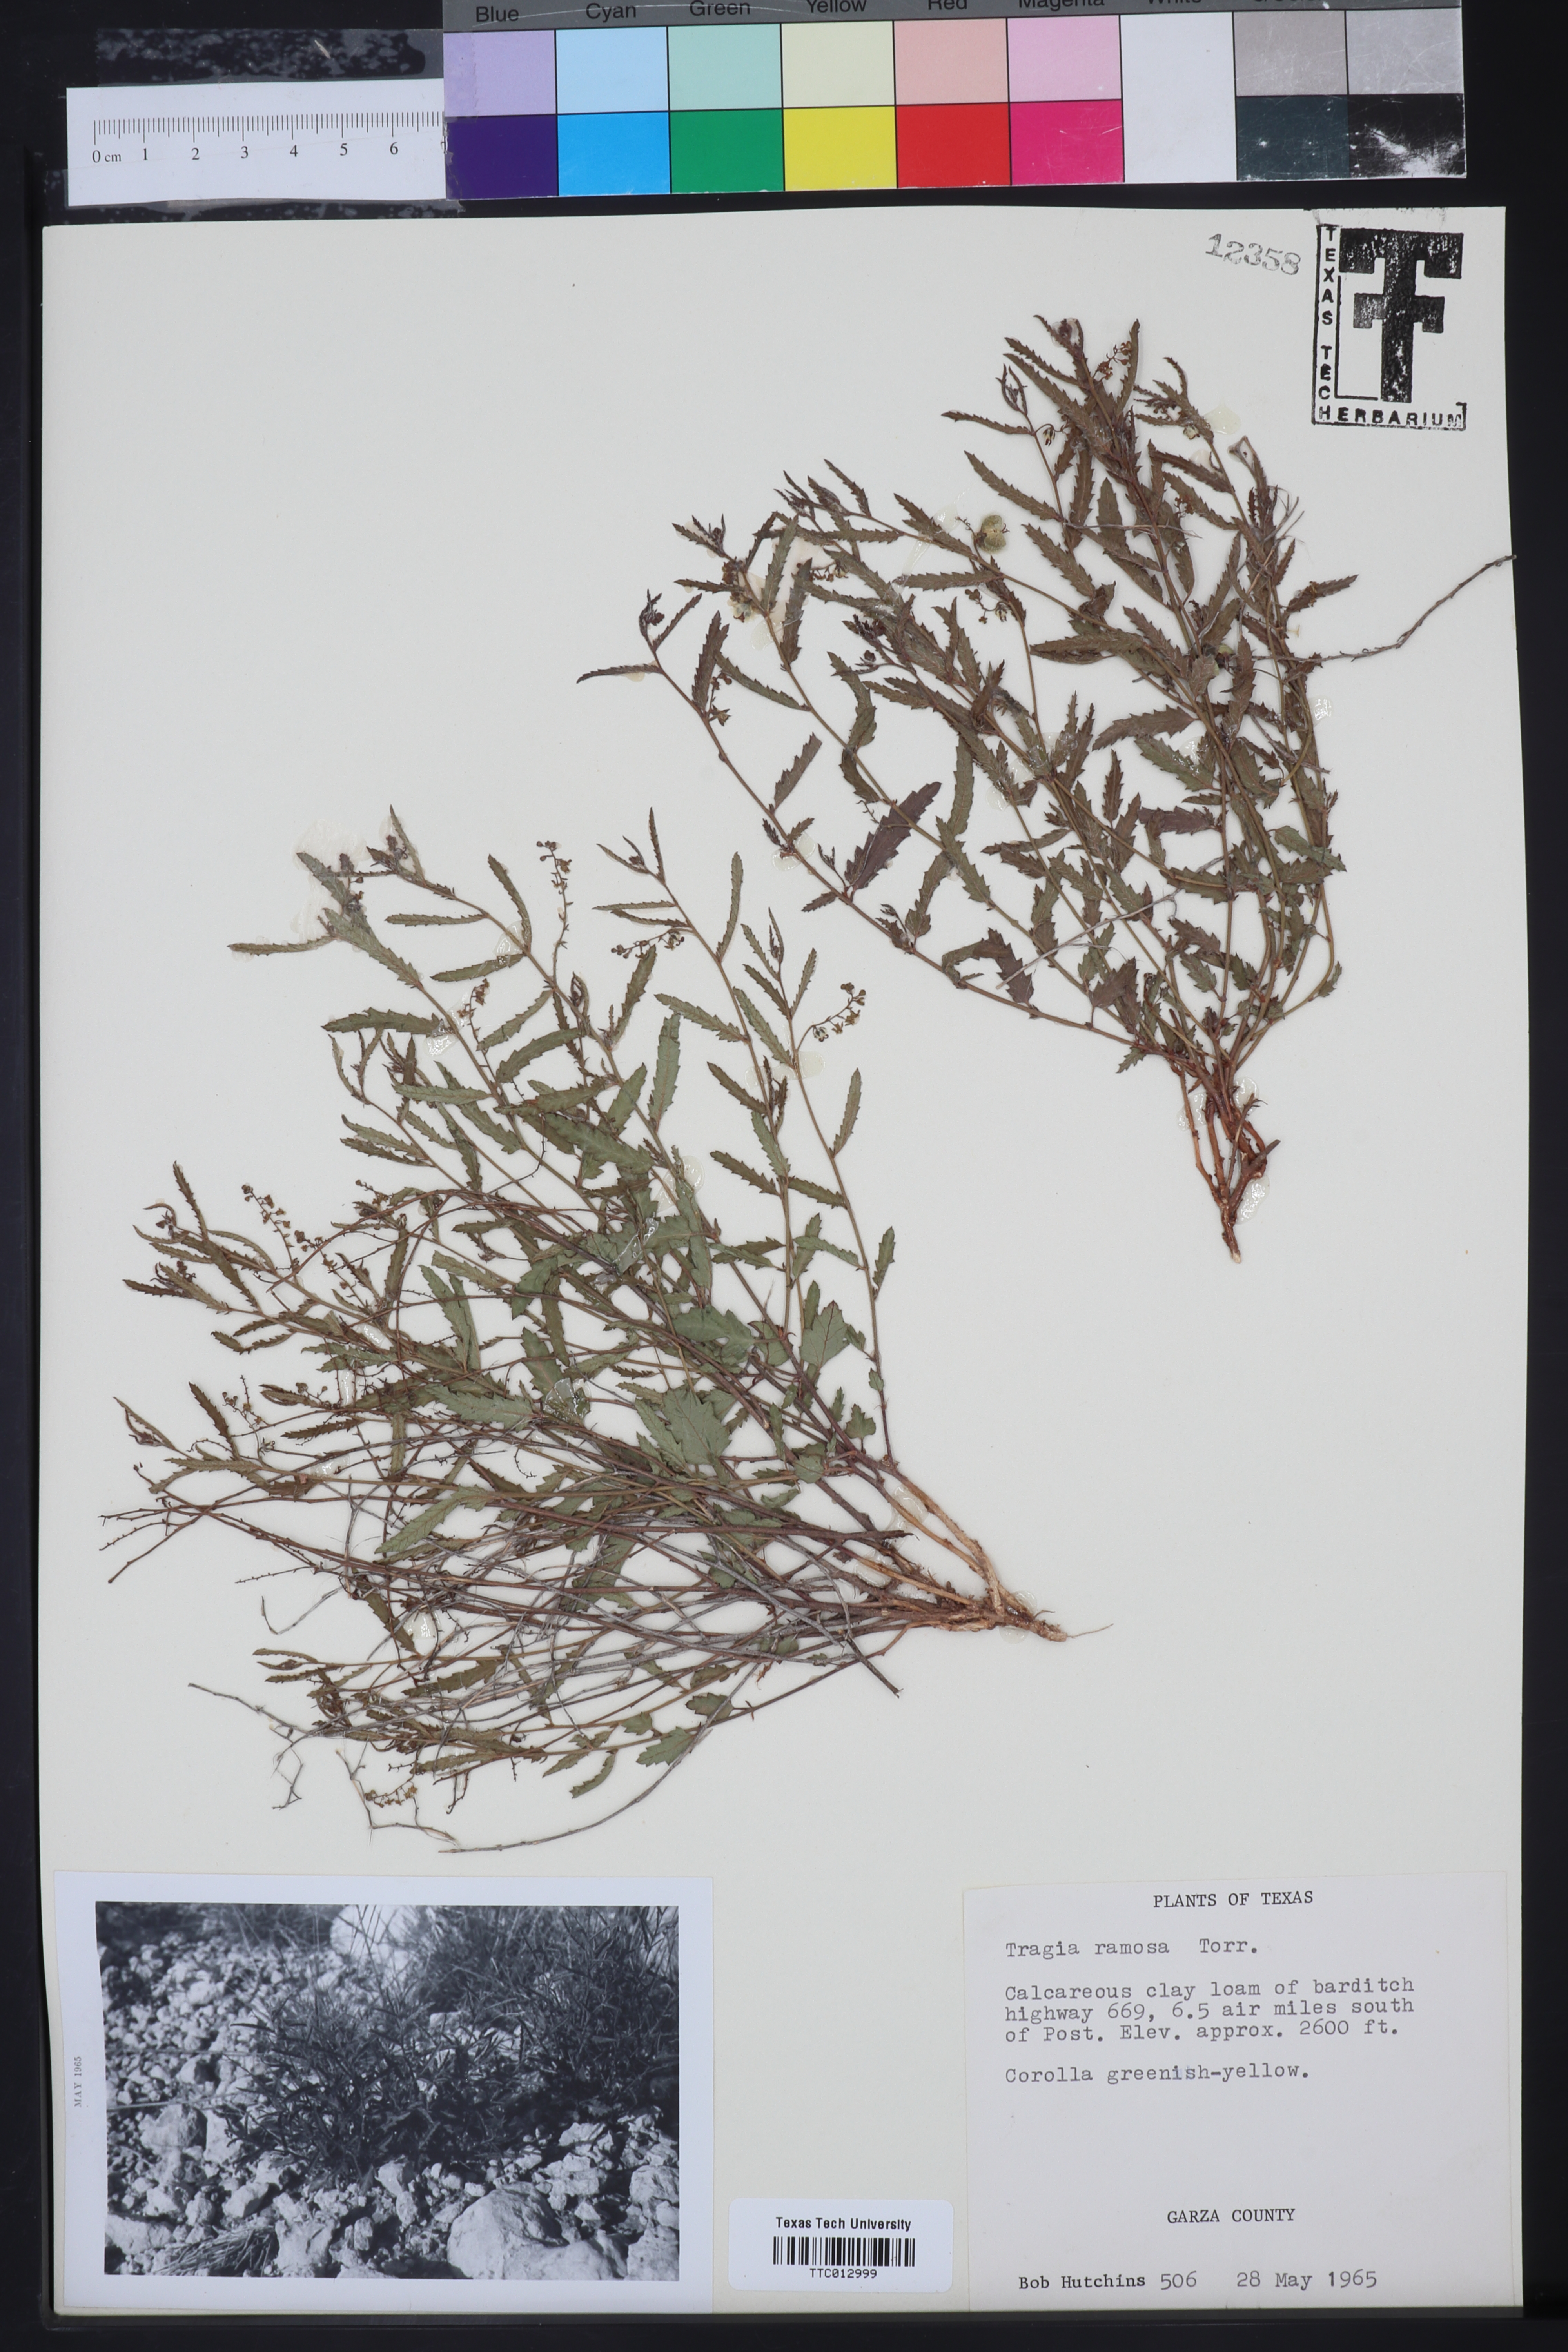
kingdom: Plantae
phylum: Tracheophyta
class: Magnoliopsida
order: Malpighiales
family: Euphorbiaceae
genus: Tragia
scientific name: Tragia ramosa
